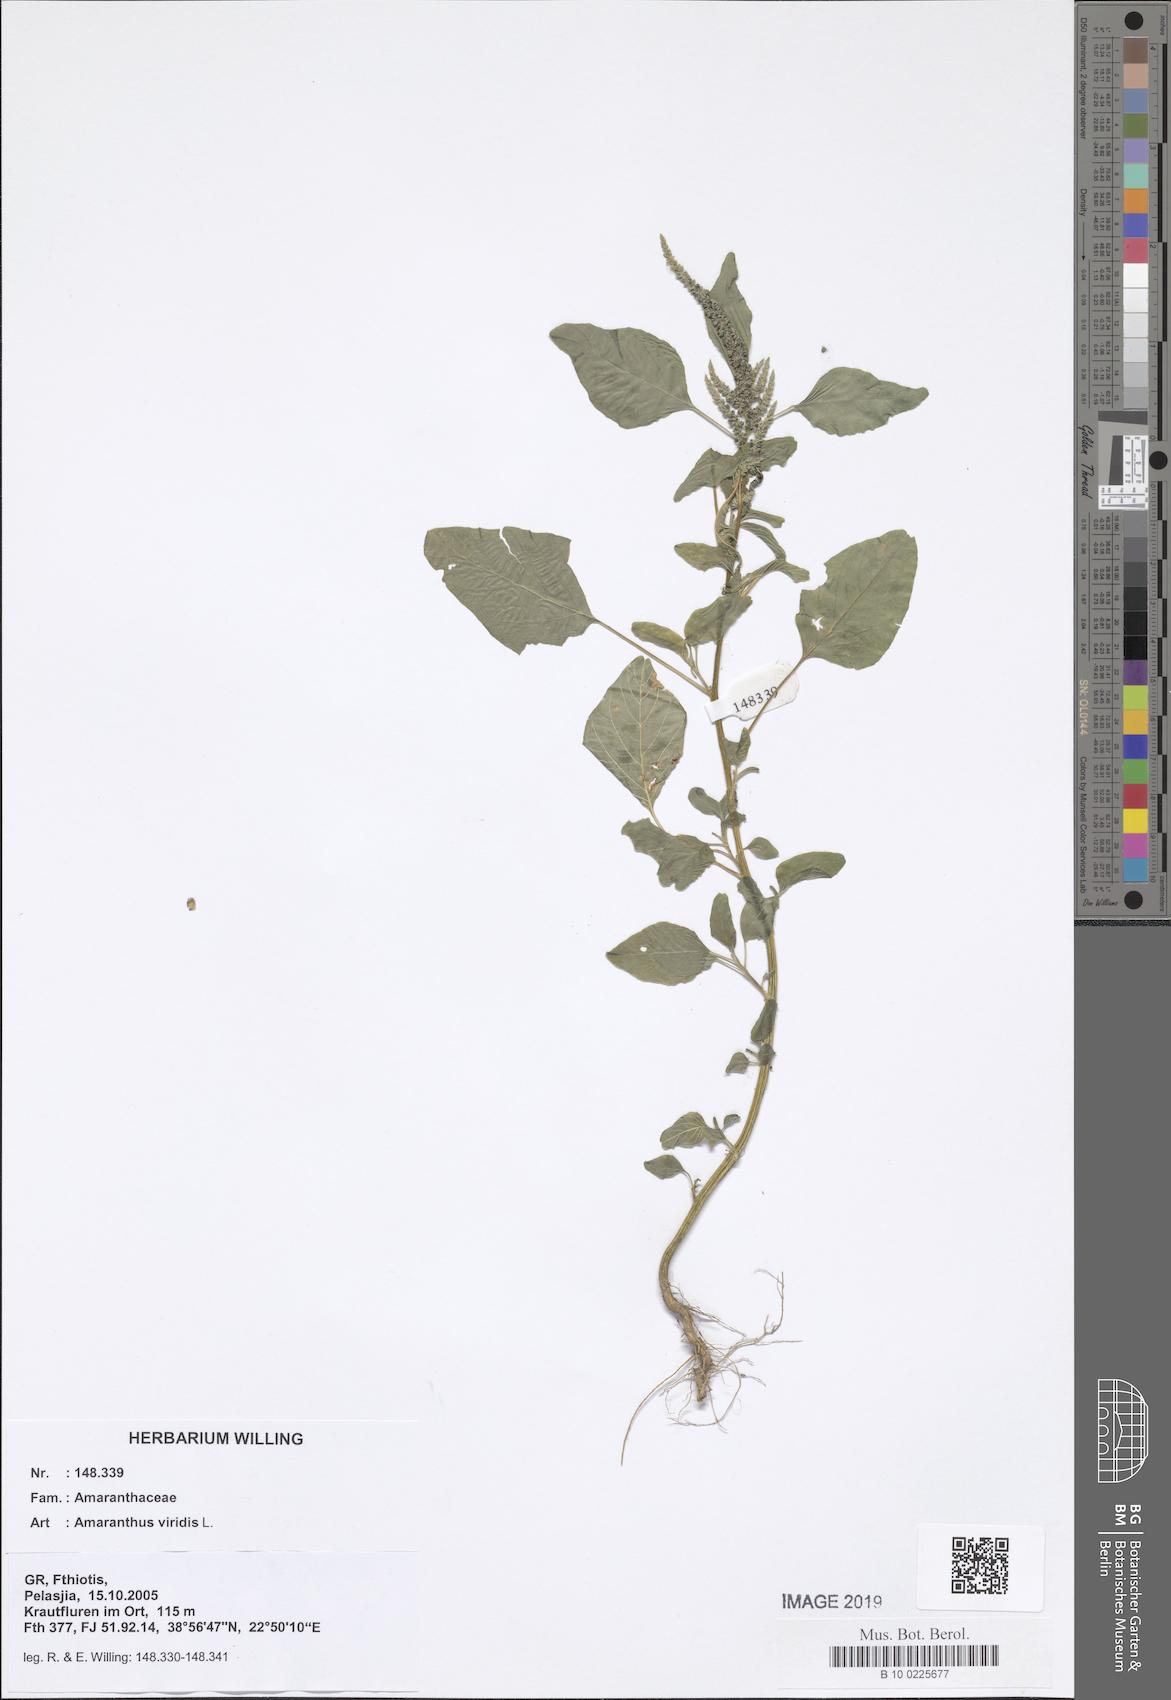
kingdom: Plantae
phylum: Tracheophyta
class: Magnoliopsida
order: Caryophyllales
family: Amaranthaceae
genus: Amaranthus
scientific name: Amaranthus viridis
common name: Slender amaranth
